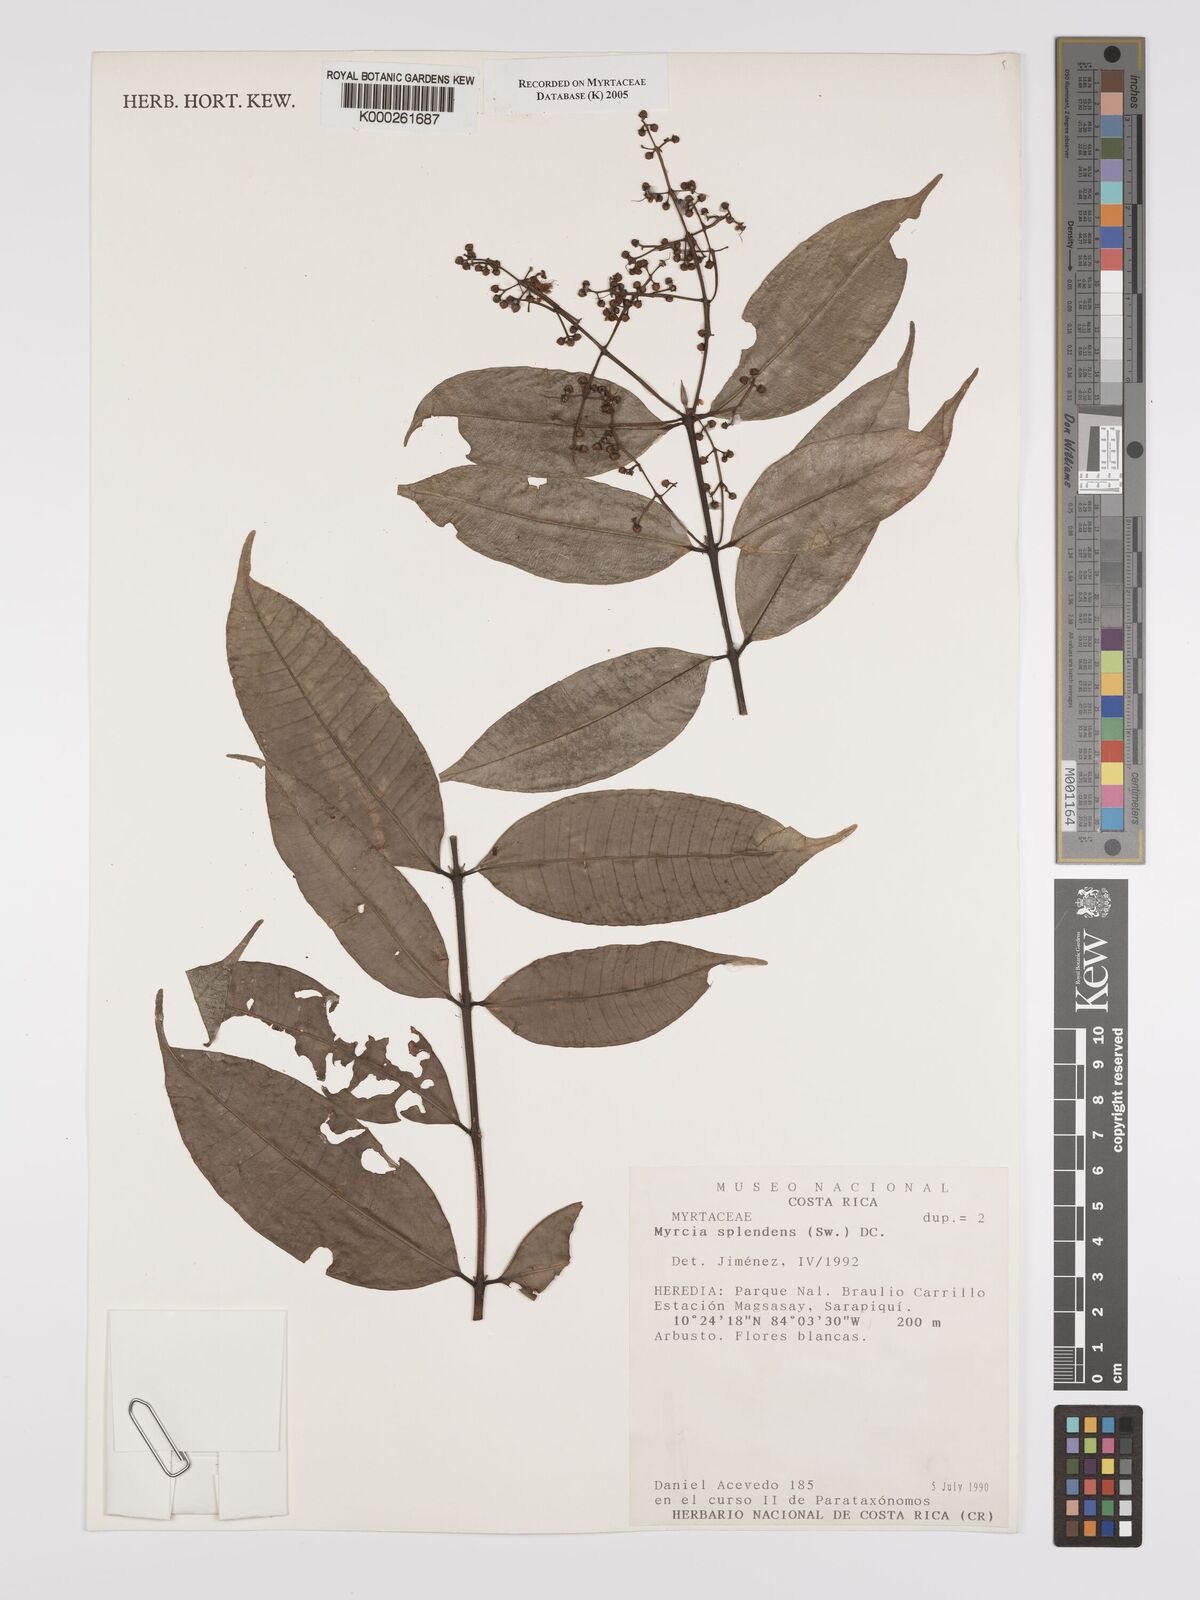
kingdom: Plantae
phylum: Tracheophyta
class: Magnoliopsida
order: Myrtales
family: Myrtaceae
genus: Myrcia
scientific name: Myrcia splendens
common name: Surinam cherry
